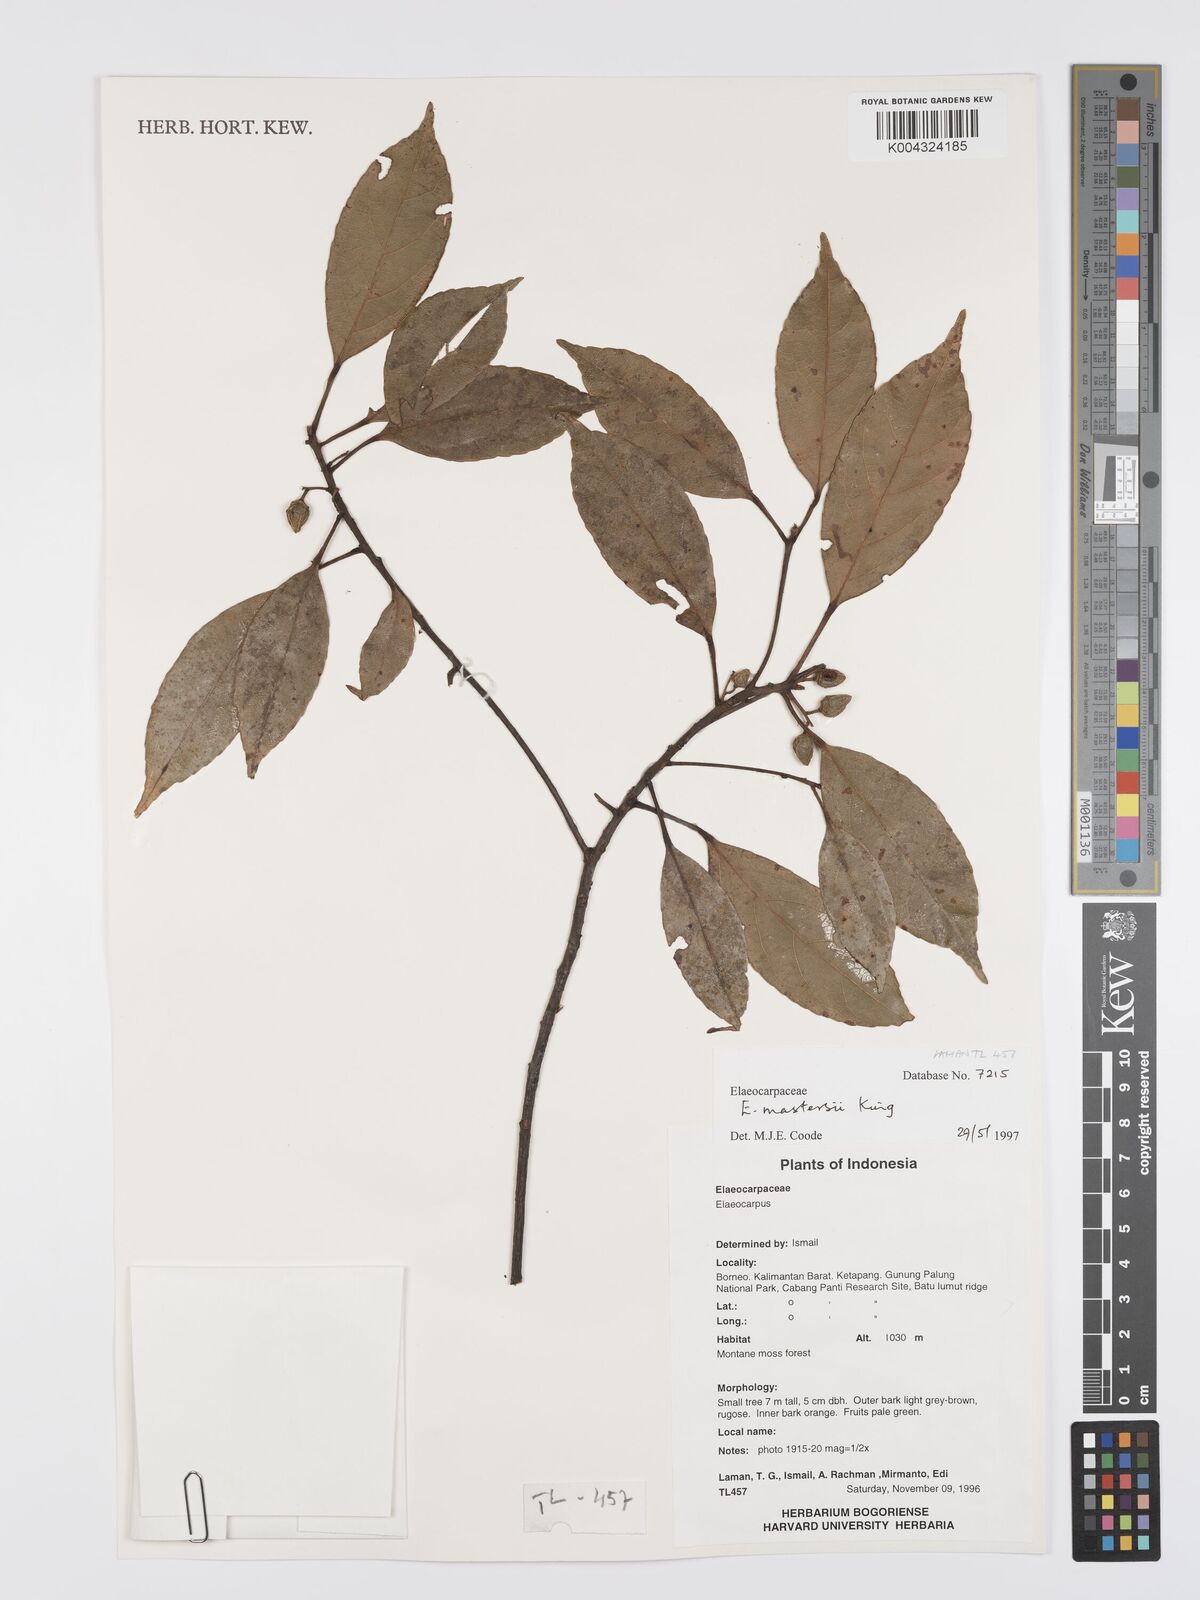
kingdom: Plantae
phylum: Tracheophyta
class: Magnoliopsida
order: Oxalidales
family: Elaeocarpaceae
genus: Elaeocarpus
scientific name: Elaeocarpus mastersii
